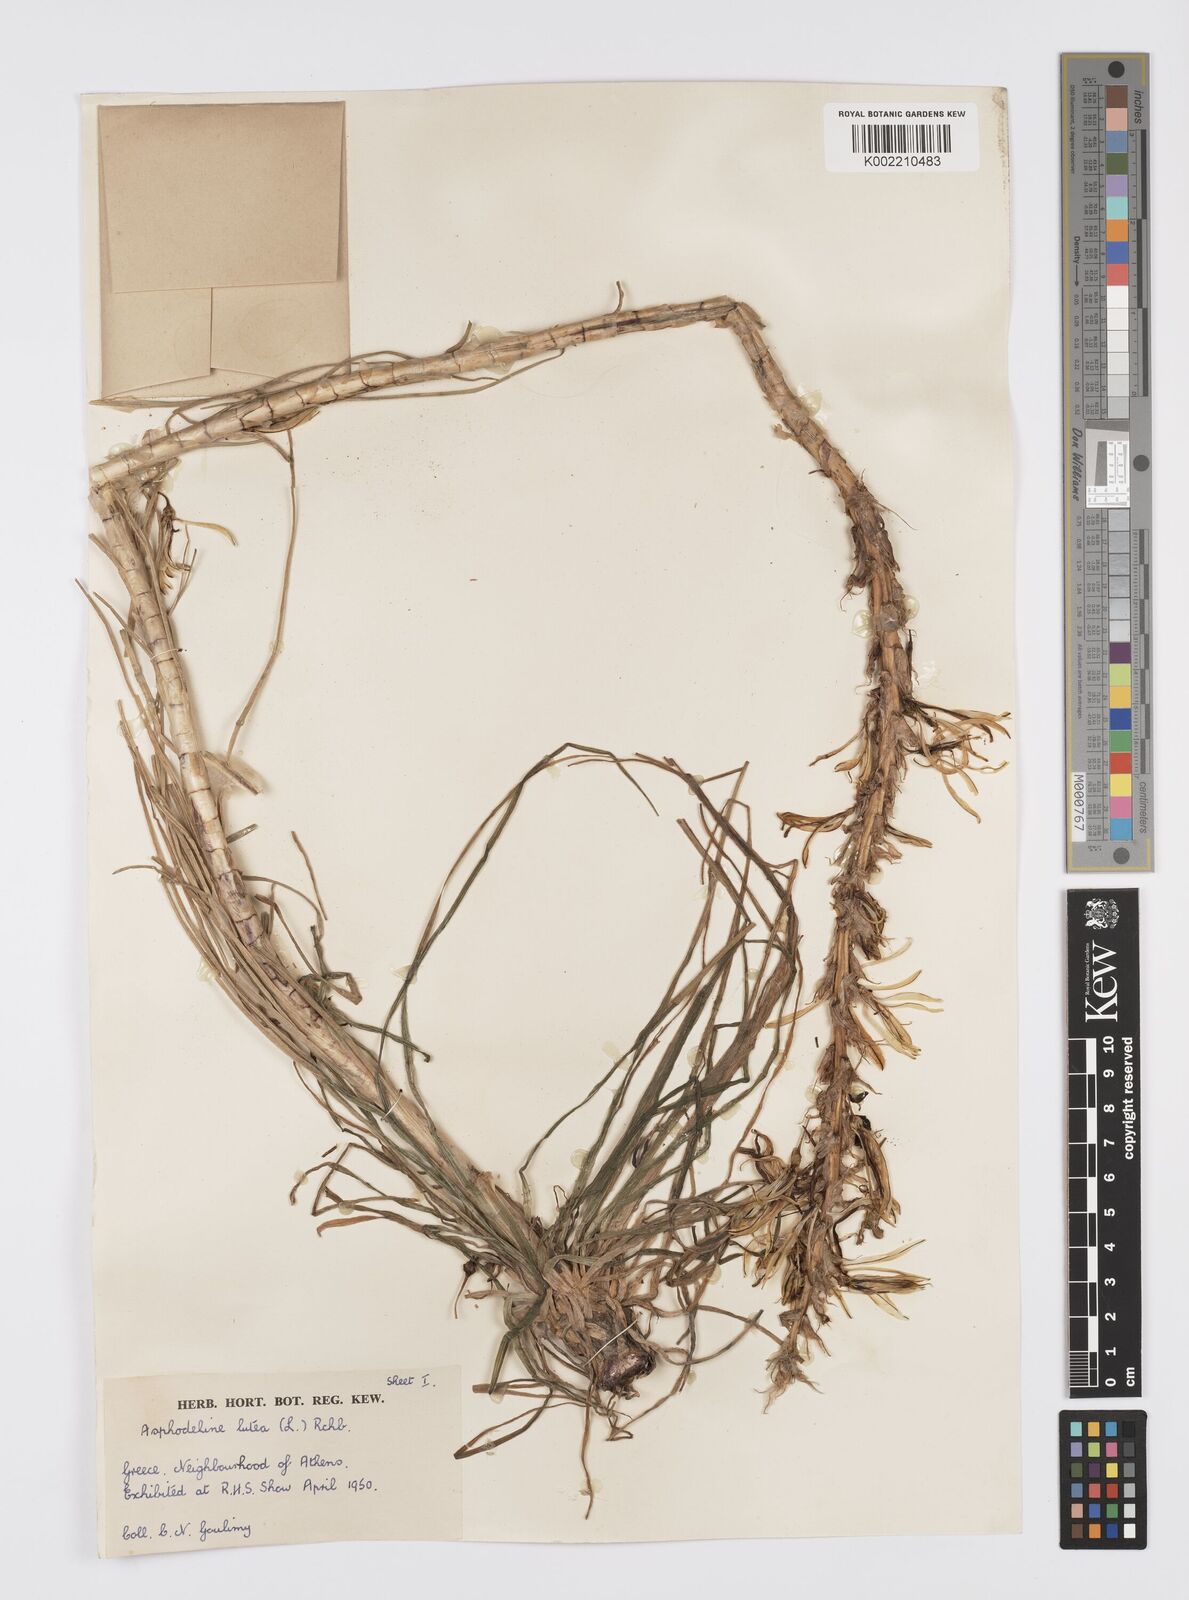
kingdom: Plantae
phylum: Tracheophyta
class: Liliopsida
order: Asparagales
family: Asphodelaceae
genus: Asphodeline
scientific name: Asphodeline lutea
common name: Yellow asphodel
